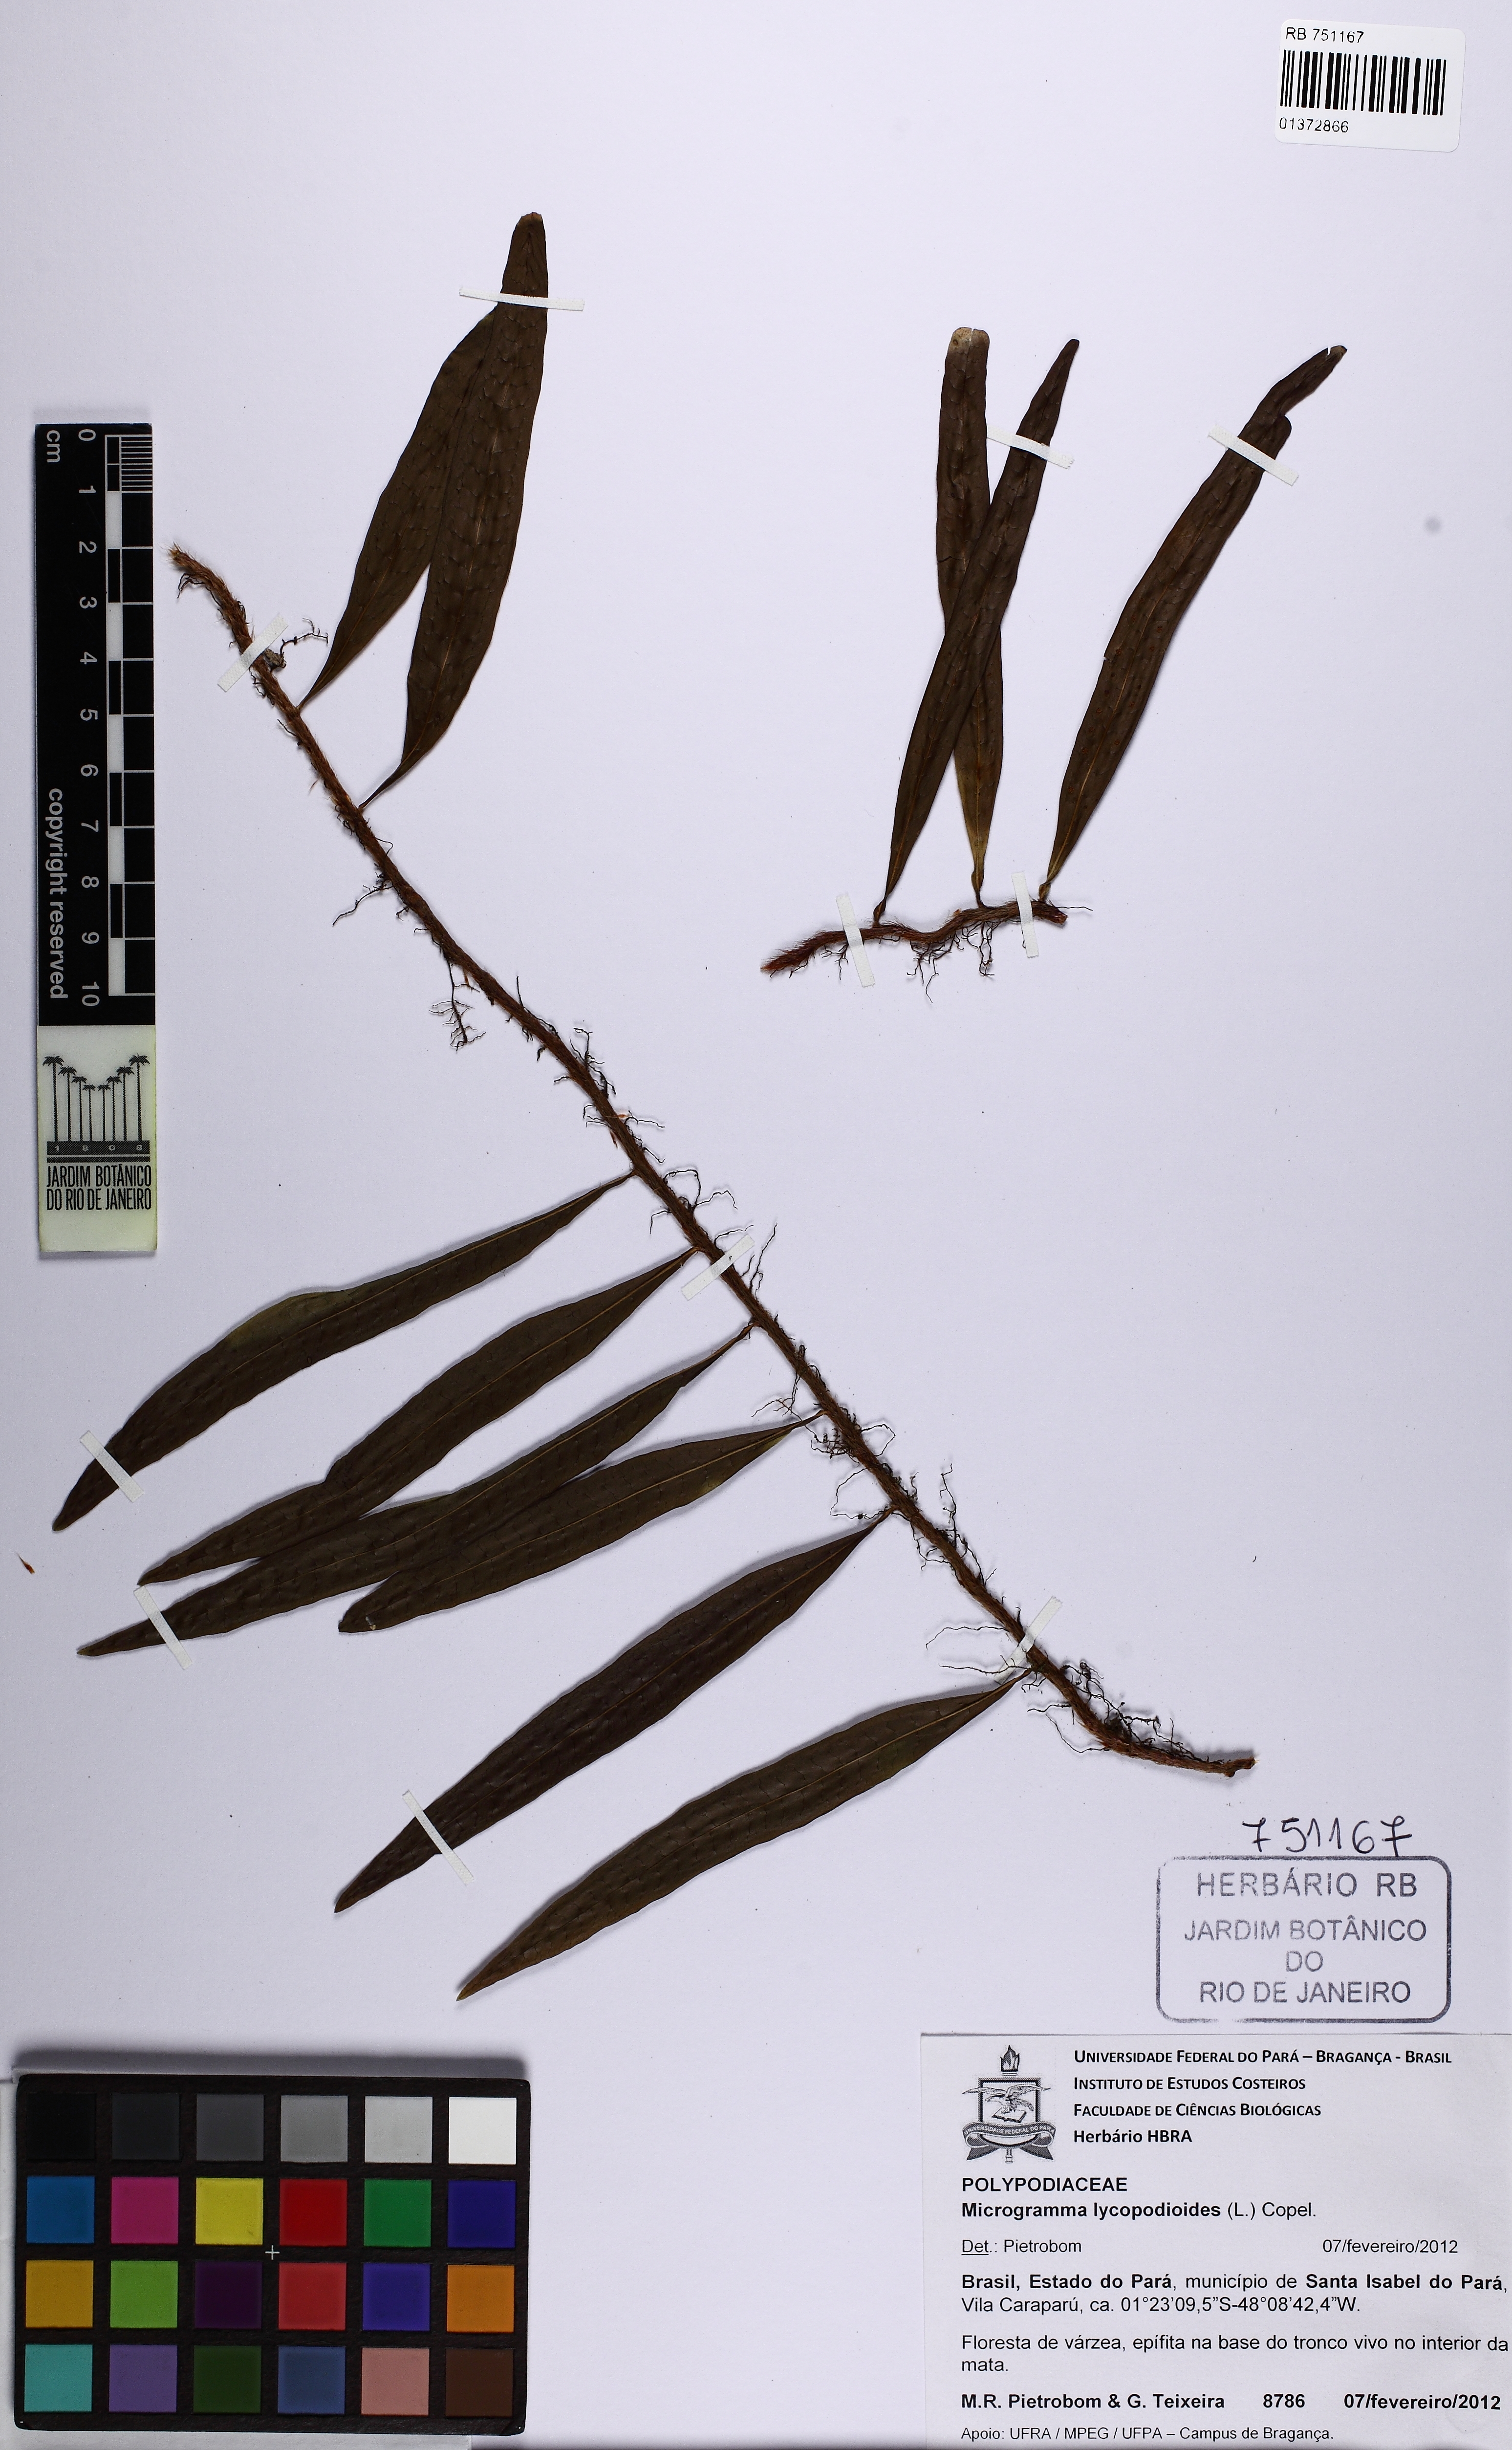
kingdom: Plantae
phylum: Tracheophyta
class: Polypodiopsida
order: Polypodiales
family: Polypodiaceae
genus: Microgramma
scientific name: Microgramma lycopodioides
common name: Bastard catclaw
